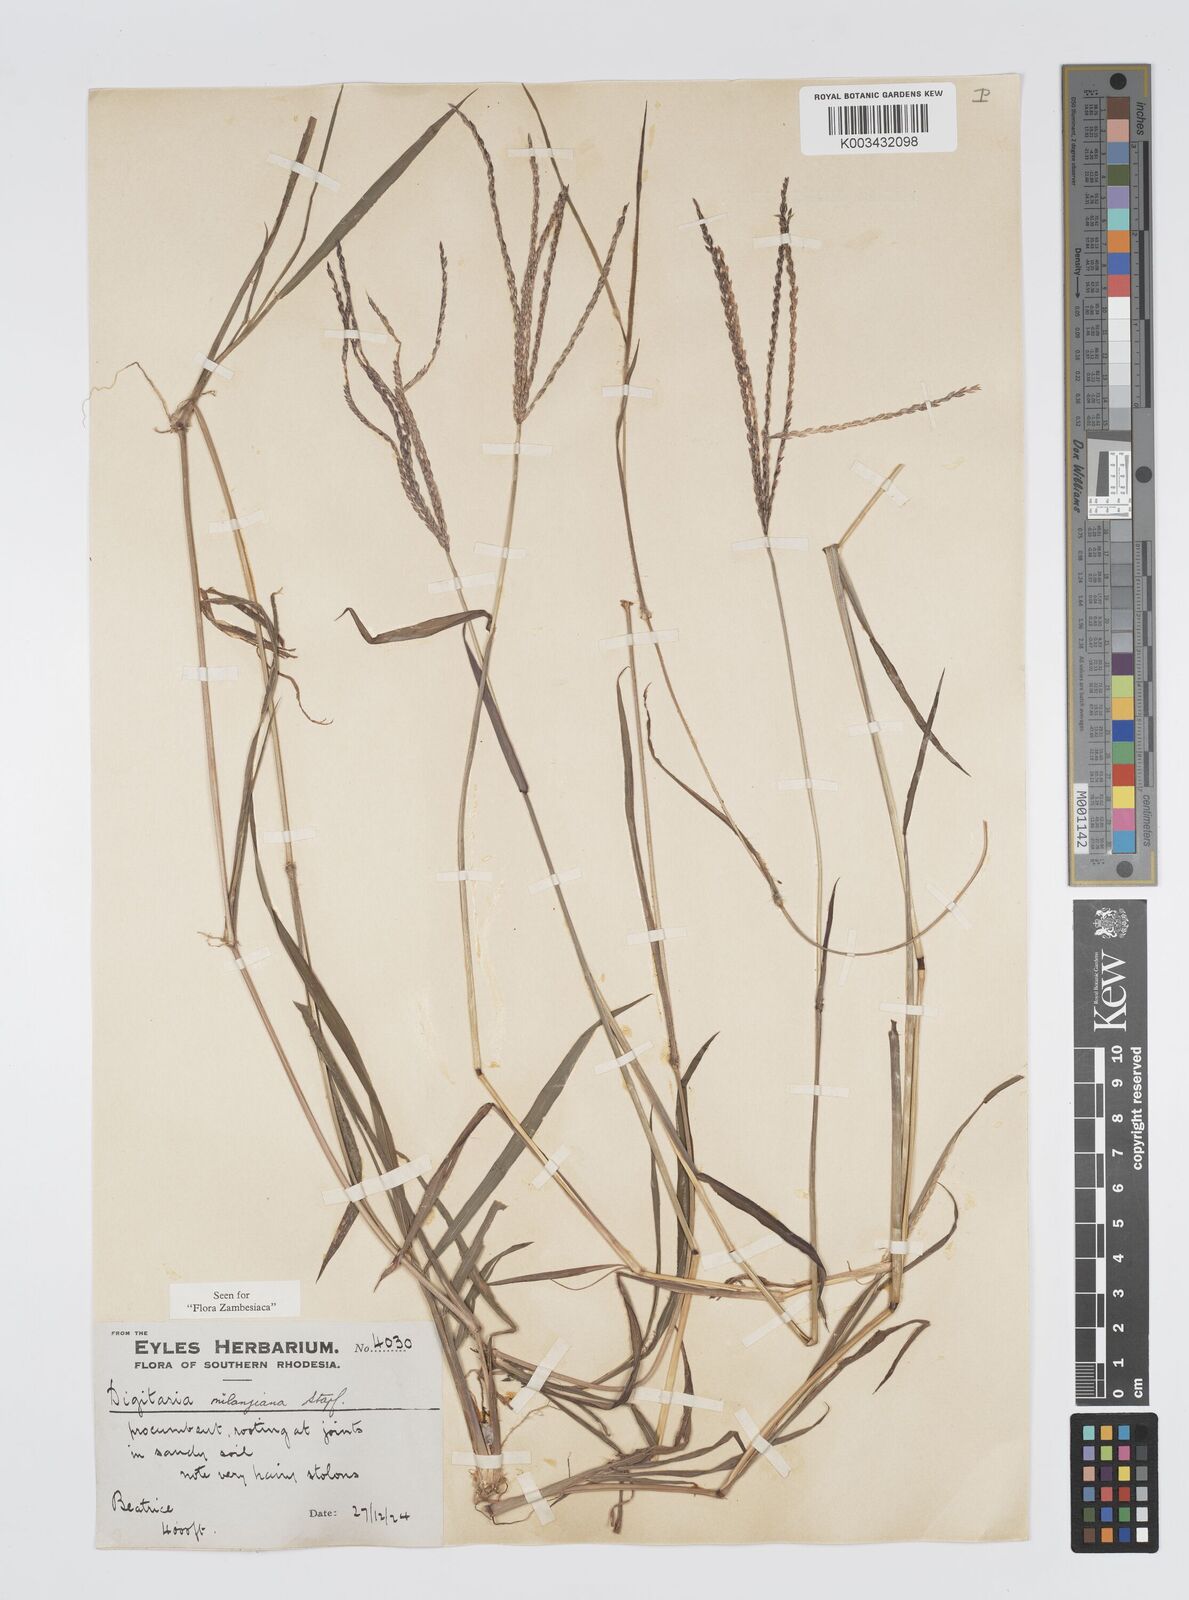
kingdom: Plantae
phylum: Tracheophyta
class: Liliopsida
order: Poales
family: Poaceae
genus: Digitaria
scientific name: Digitaria milanjiana
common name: Madagascar crabgrass
